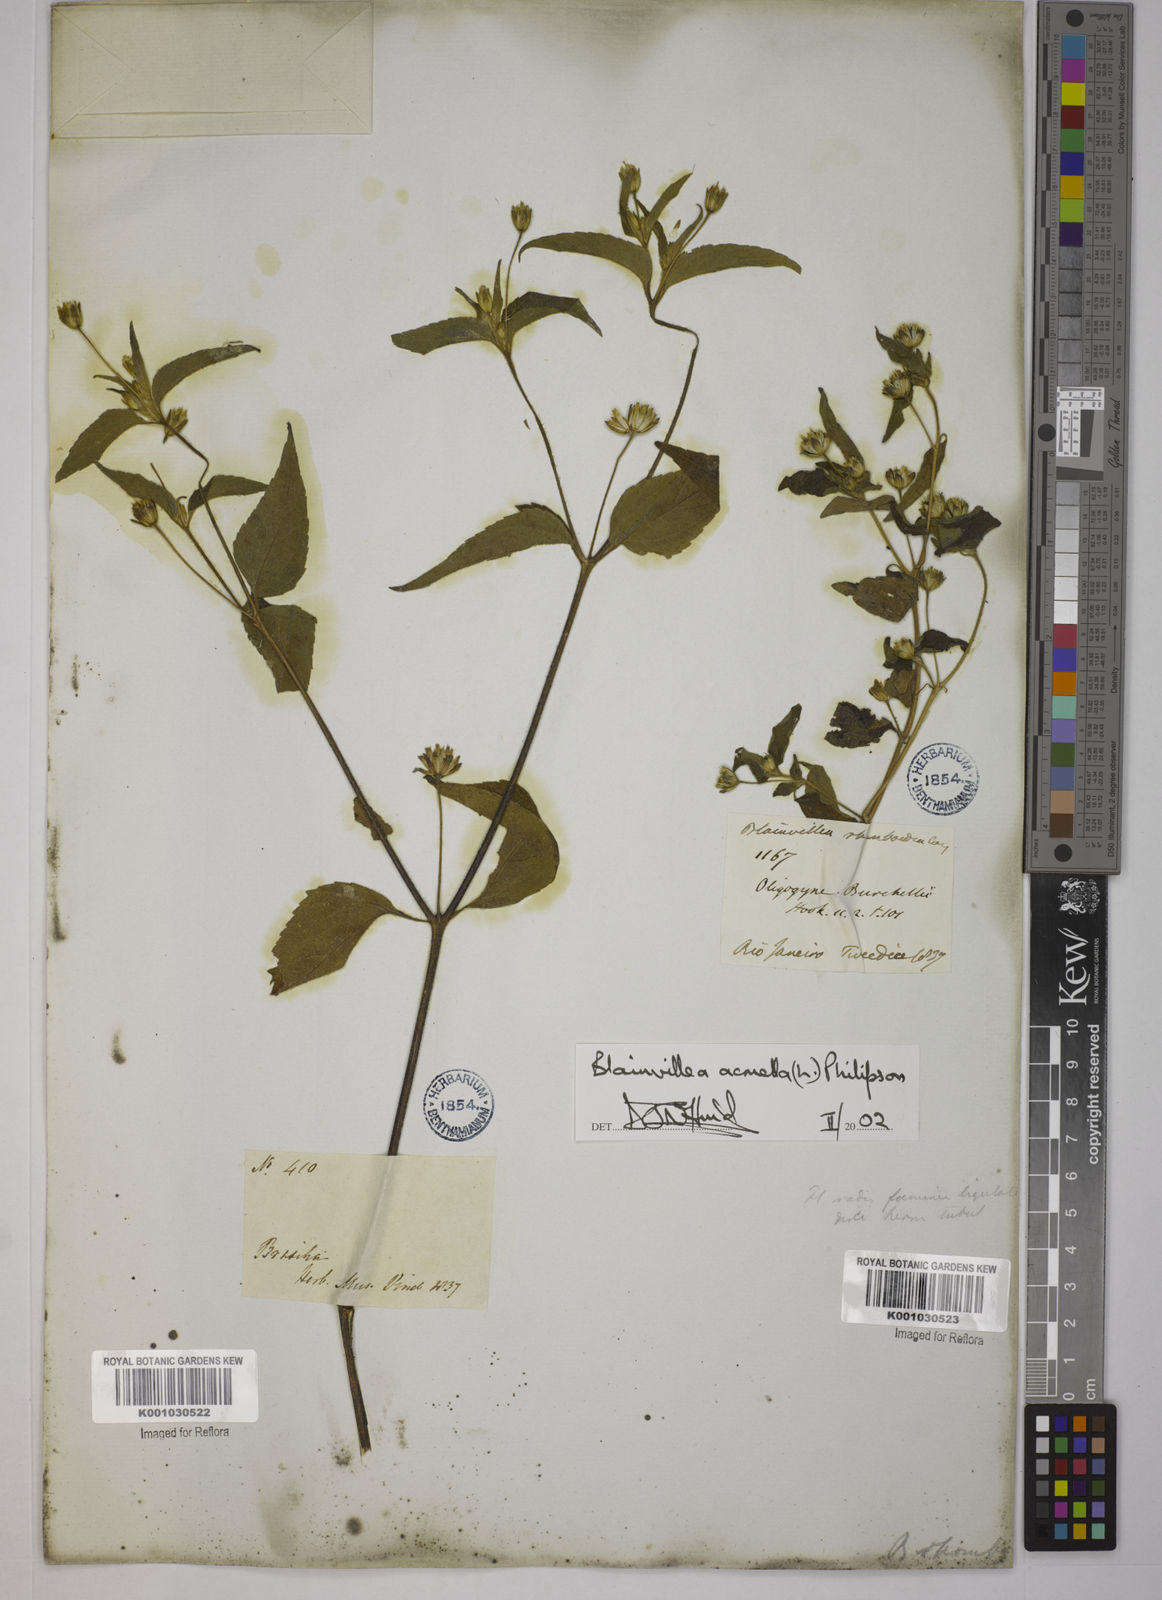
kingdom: Plantae
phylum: Tracheophyta
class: Magnoliopsida
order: Asterales
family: Asteraceae
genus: Blainvillea
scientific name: Blainvillea acmella
